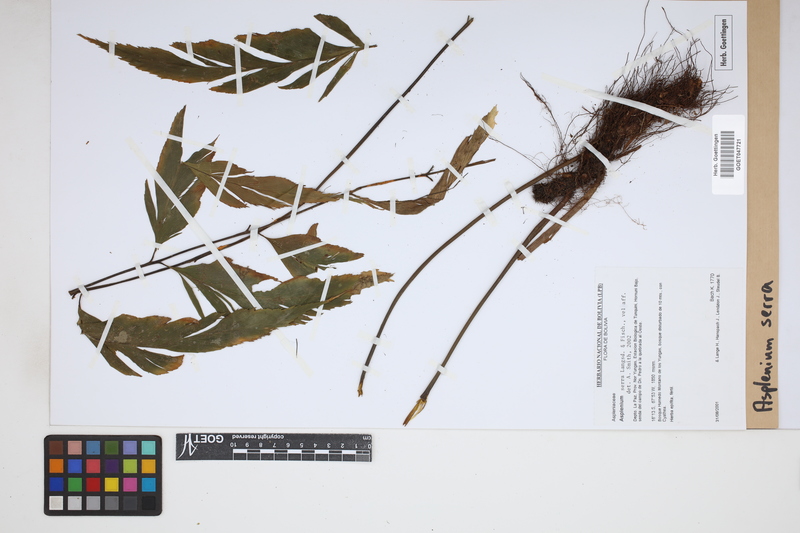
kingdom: Plantae
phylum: Tracheophyta
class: Polypodiopsida
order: Polypodiales
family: Aspleniaceae
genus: Asplenium
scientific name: Asplenium serra
